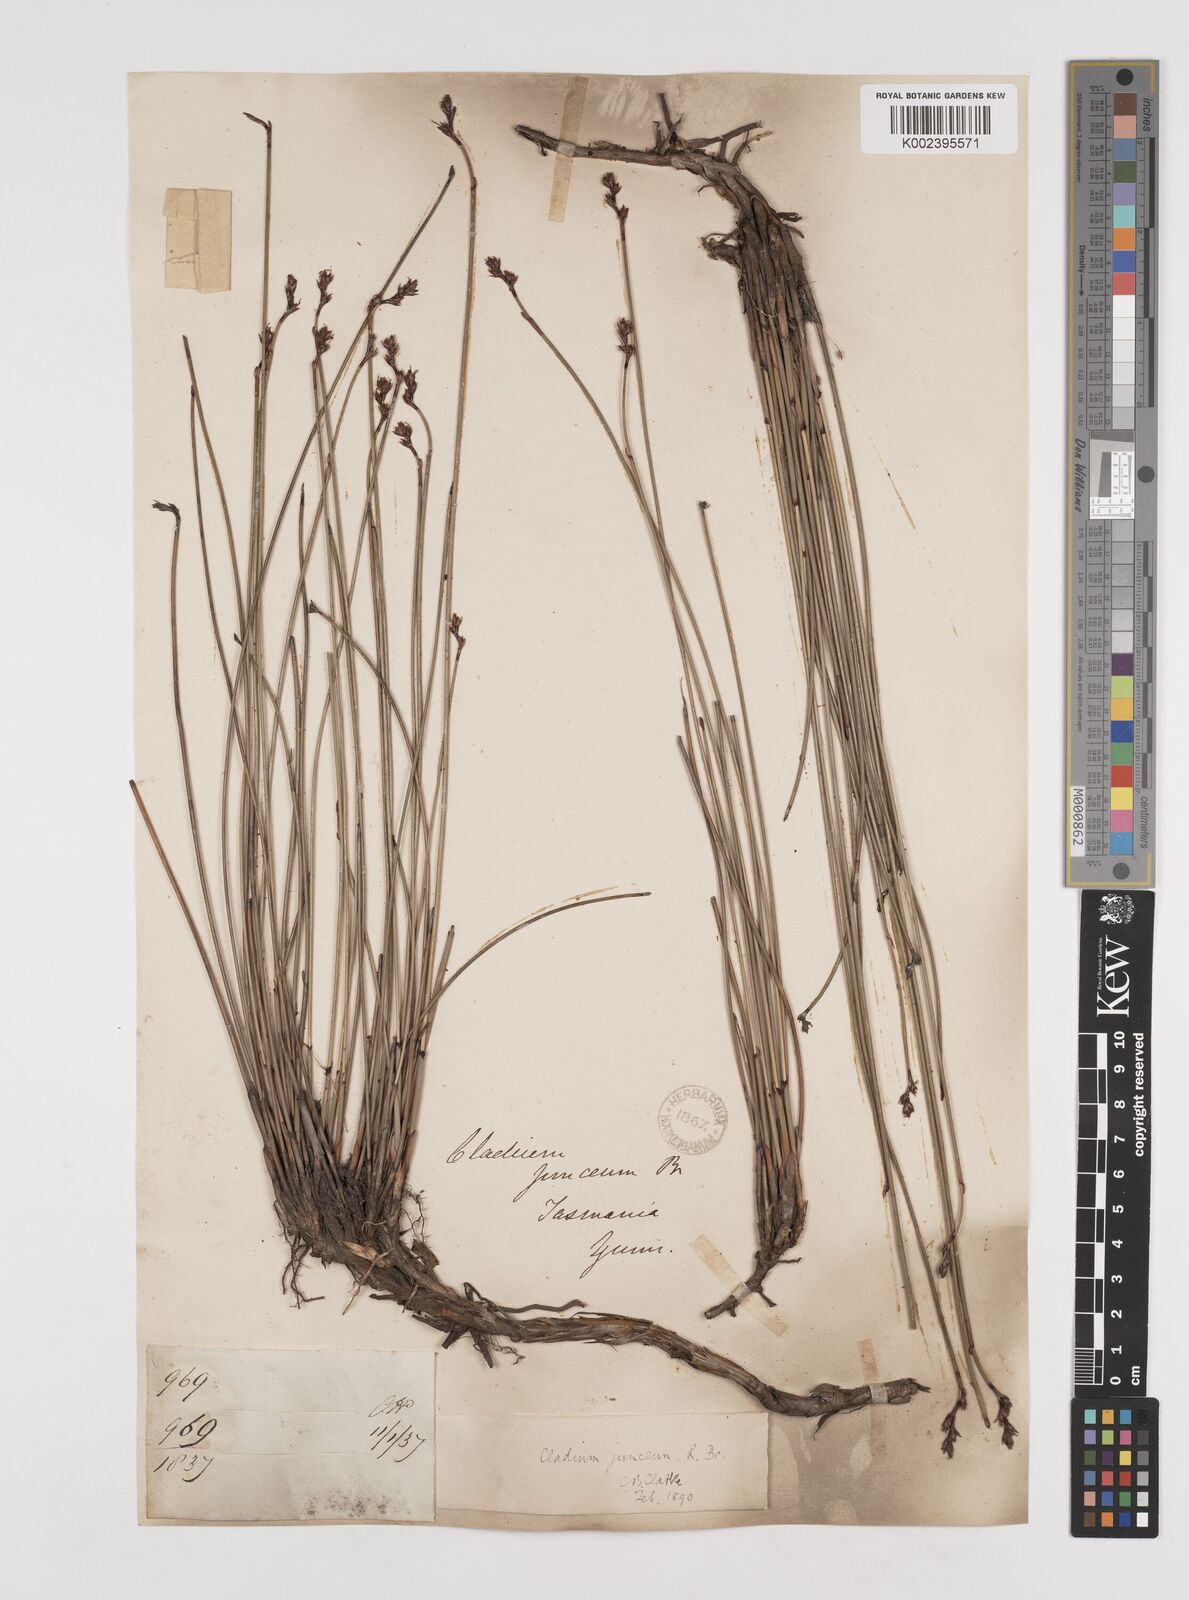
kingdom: Plantae
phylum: Tracheophyta
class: Liliopsida
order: Poales
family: Cyperaceae
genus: Machaerina
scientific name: Machaerina juncea
